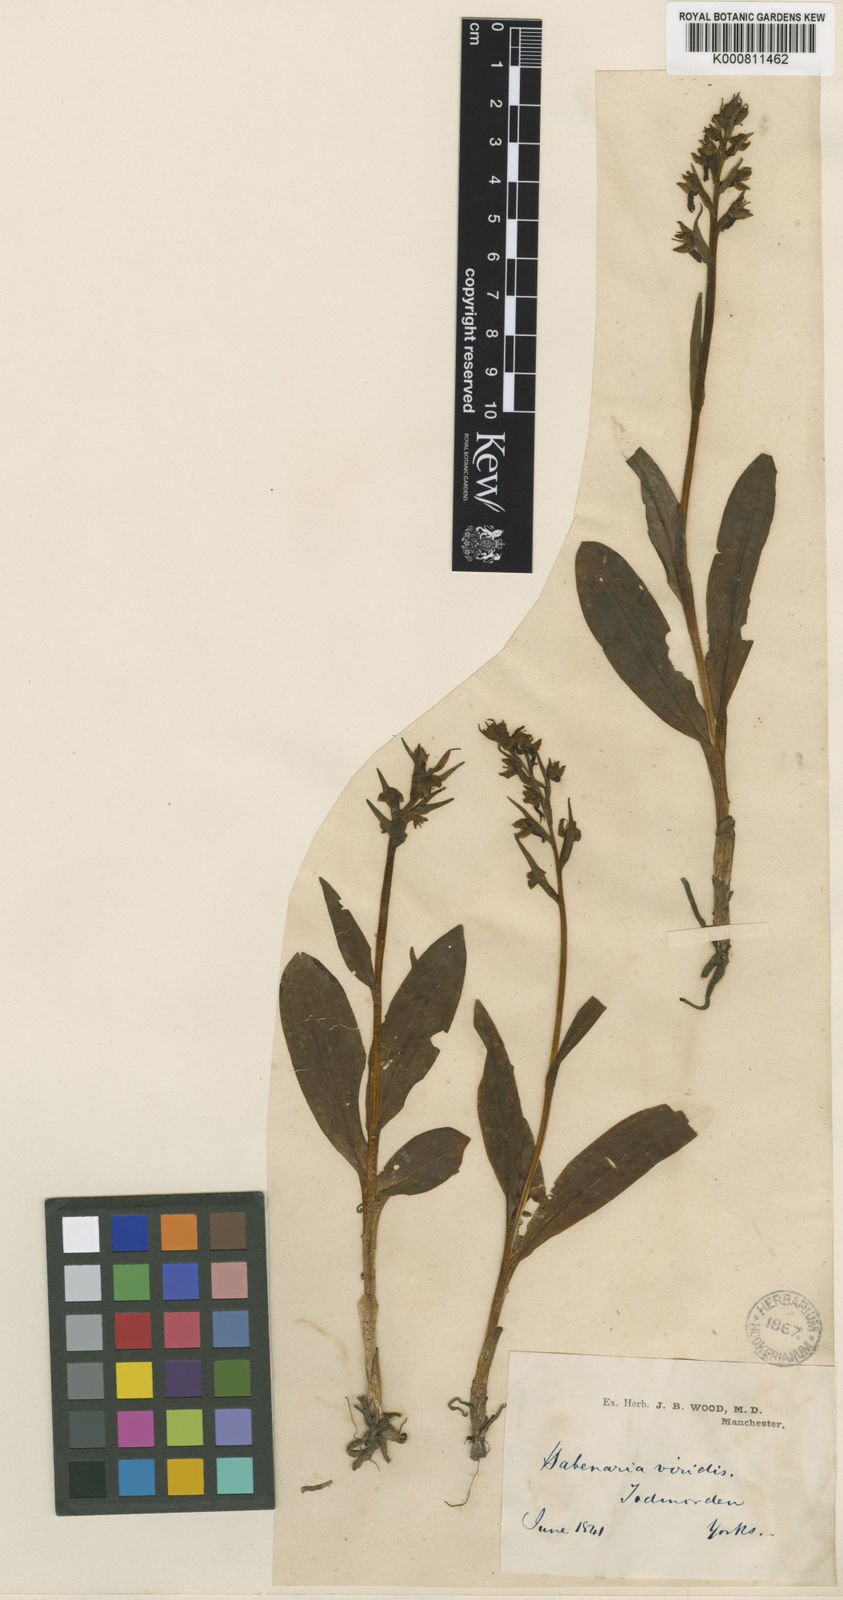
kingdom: Plantae
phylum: Tracheophyta
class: Liliopsida
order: Asparagales
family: Orchidaceae
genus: Dactylorhiza
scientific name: Dactylorhiza viridis
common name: Longbract frog orchid
